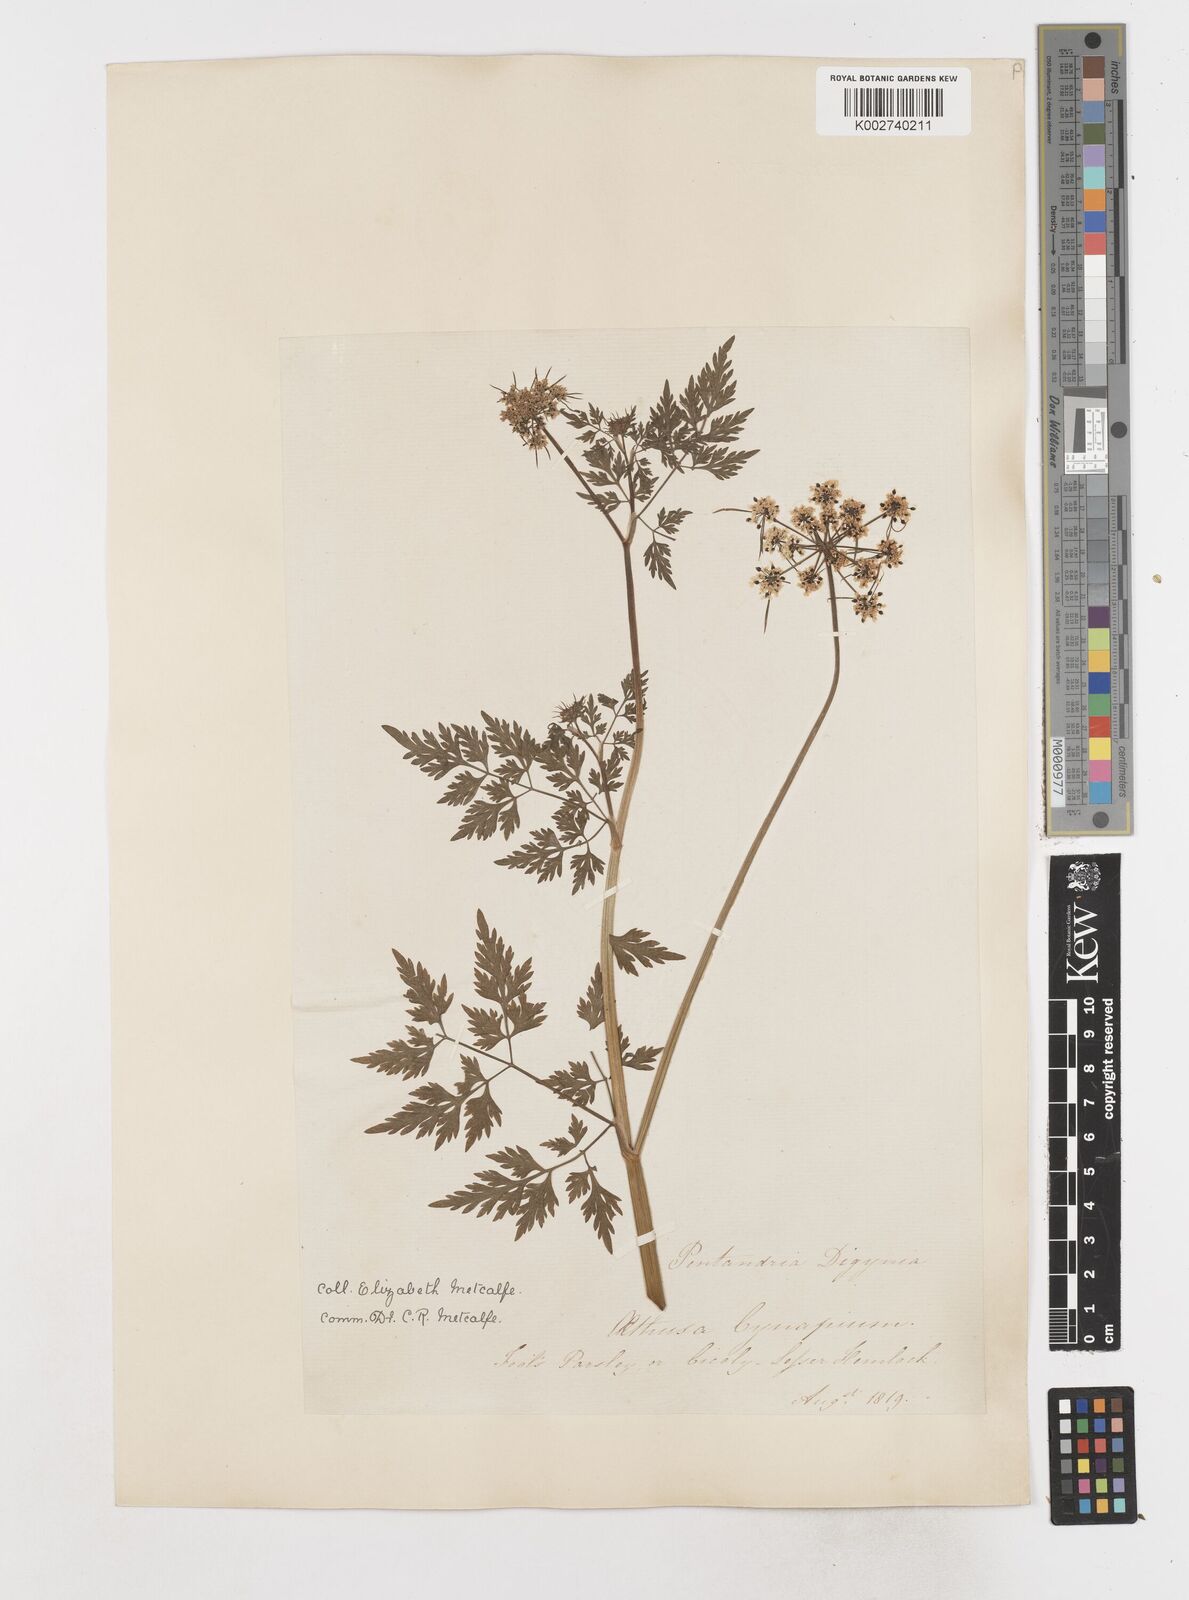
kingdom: Plantae
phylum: Tracheophyta
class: Magnoliopsida
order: Apiales
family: Apiaceae
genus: Aethusa
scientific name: Aethusa cynapium
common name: Fool's parsley
